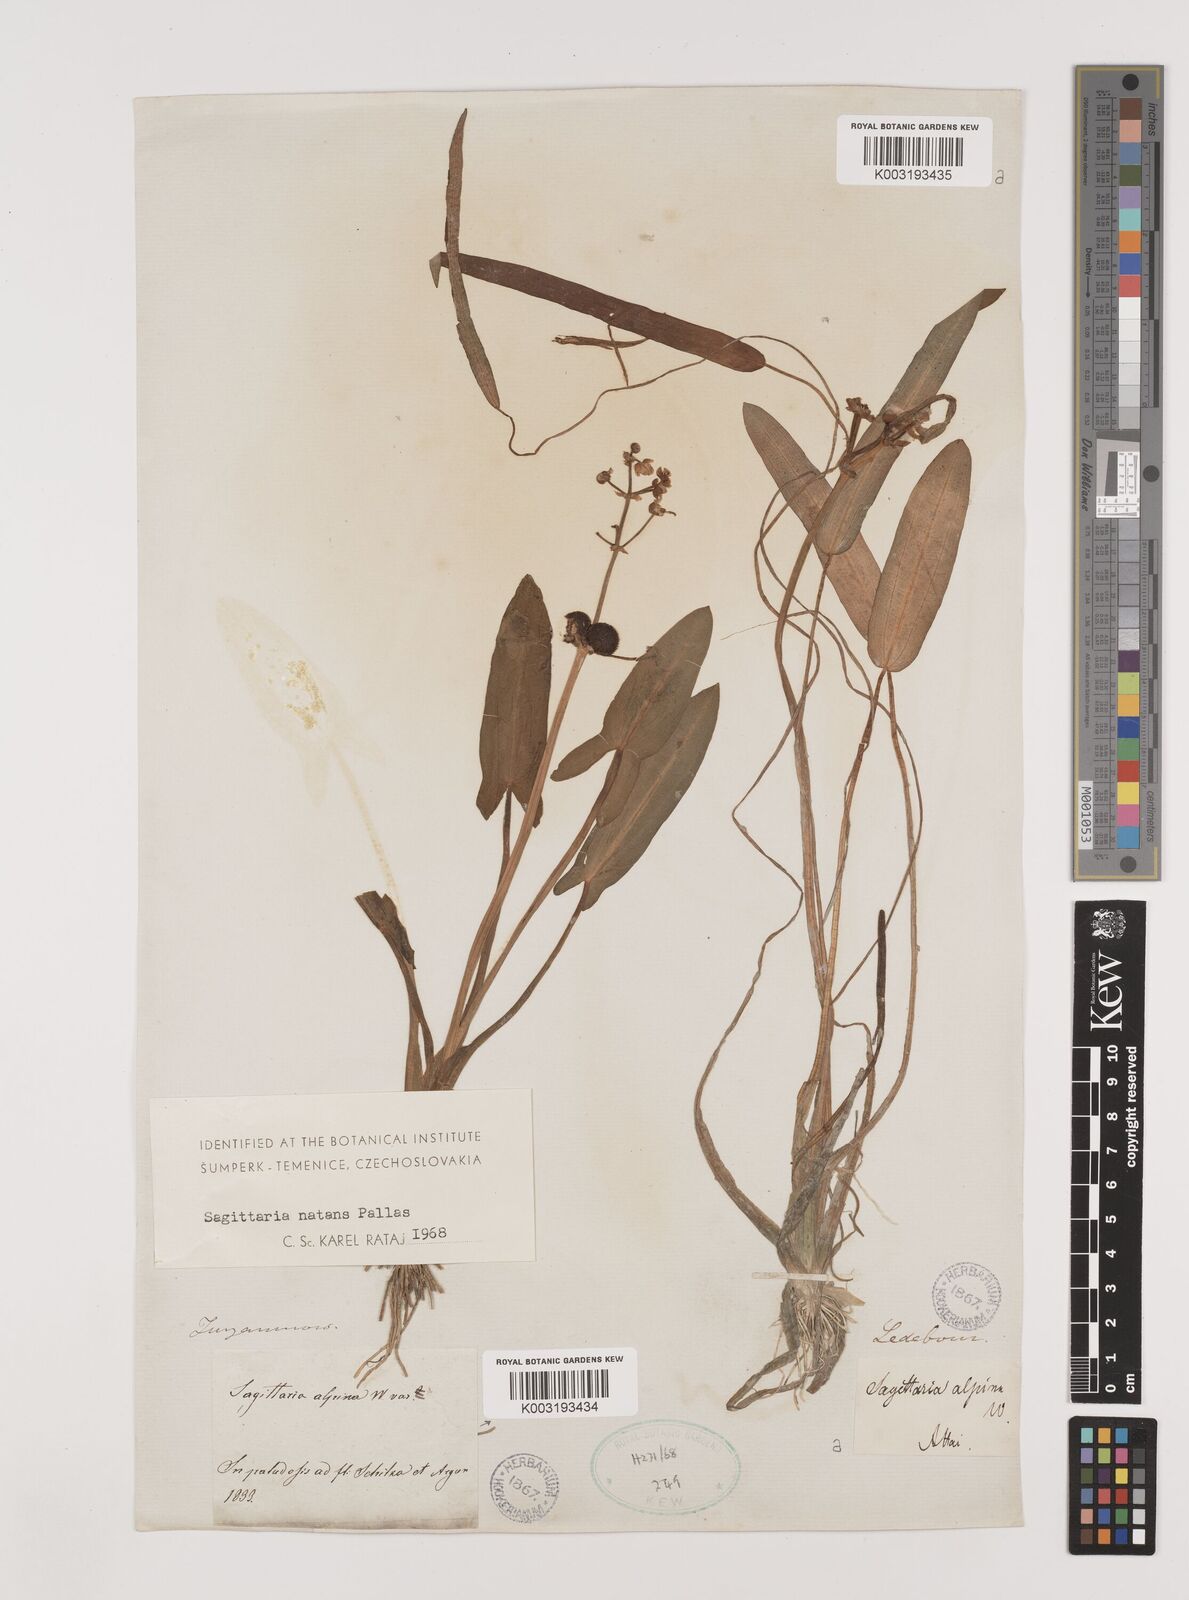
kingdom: Plantae
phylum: Tracheophyta
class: Liliopsida
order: Alismatales
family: Alismataceae
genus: Sagittaria
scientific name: Sagittaria natans
